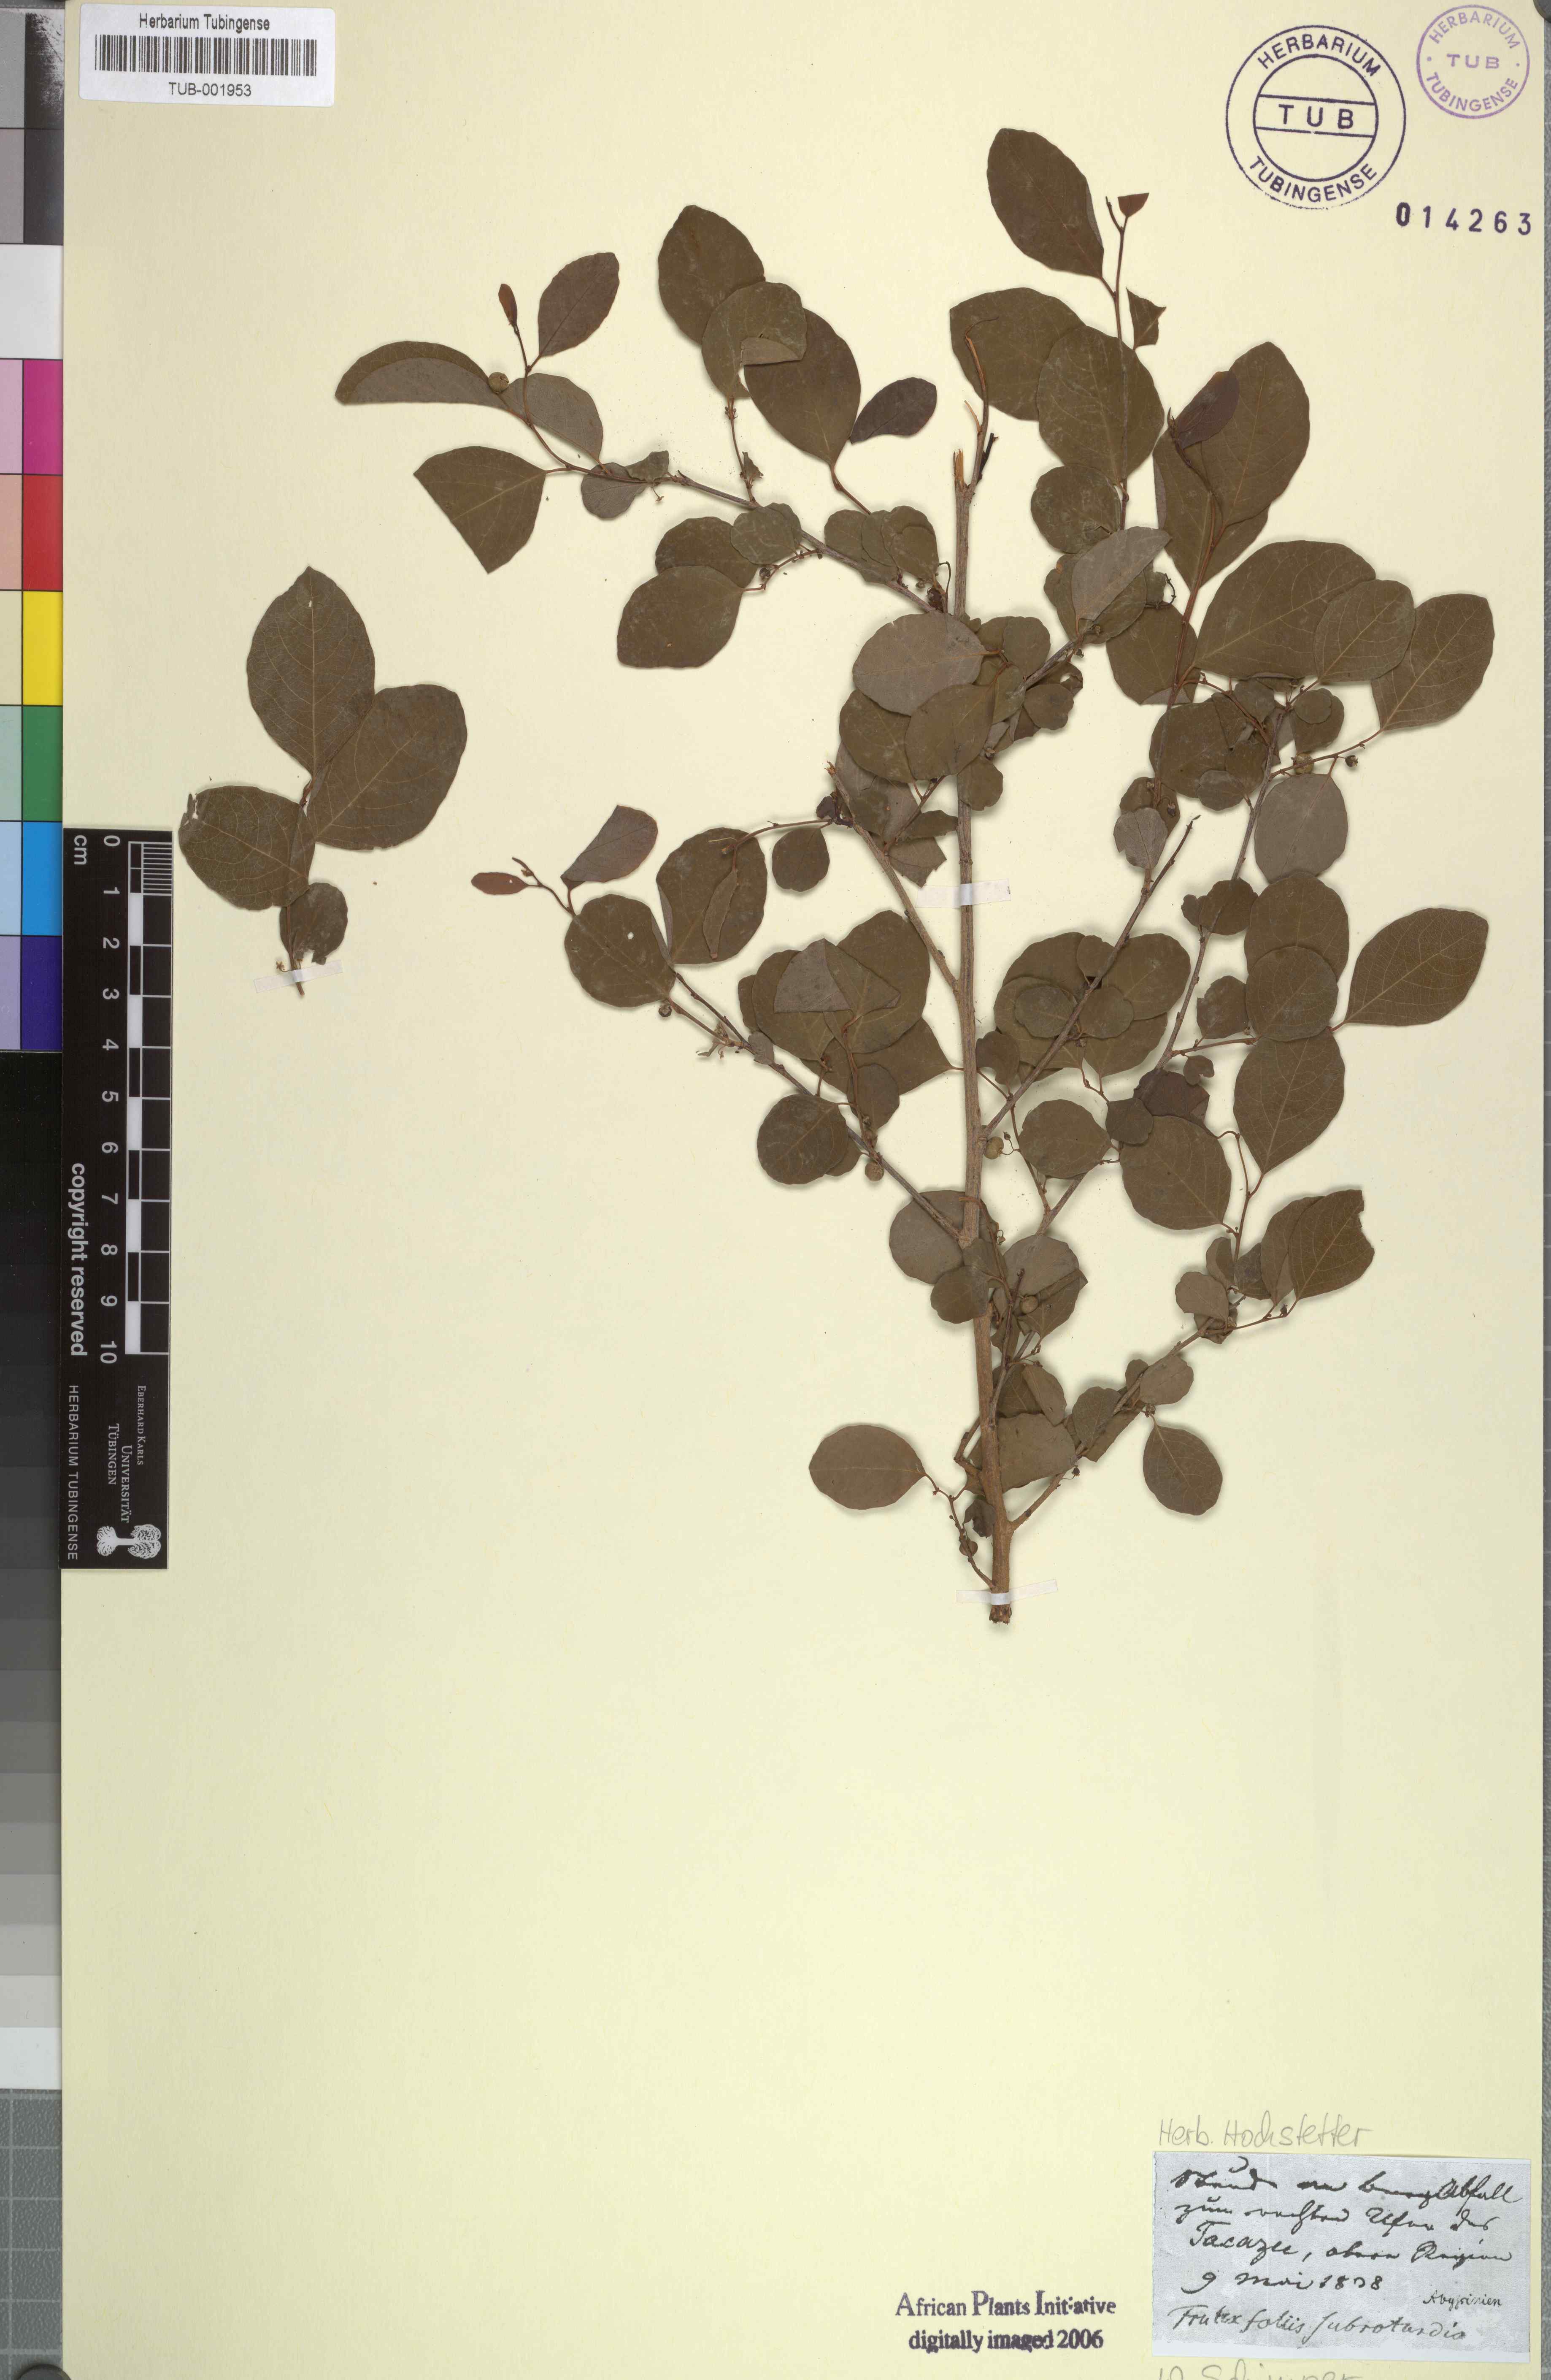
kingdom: Plantae
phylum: Tracheophyta
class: Magnoliopsida
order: Malpighiales
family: Phyllanthaceae
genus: Flueggea
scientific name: Flueggea virosa
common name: Common bushweed
